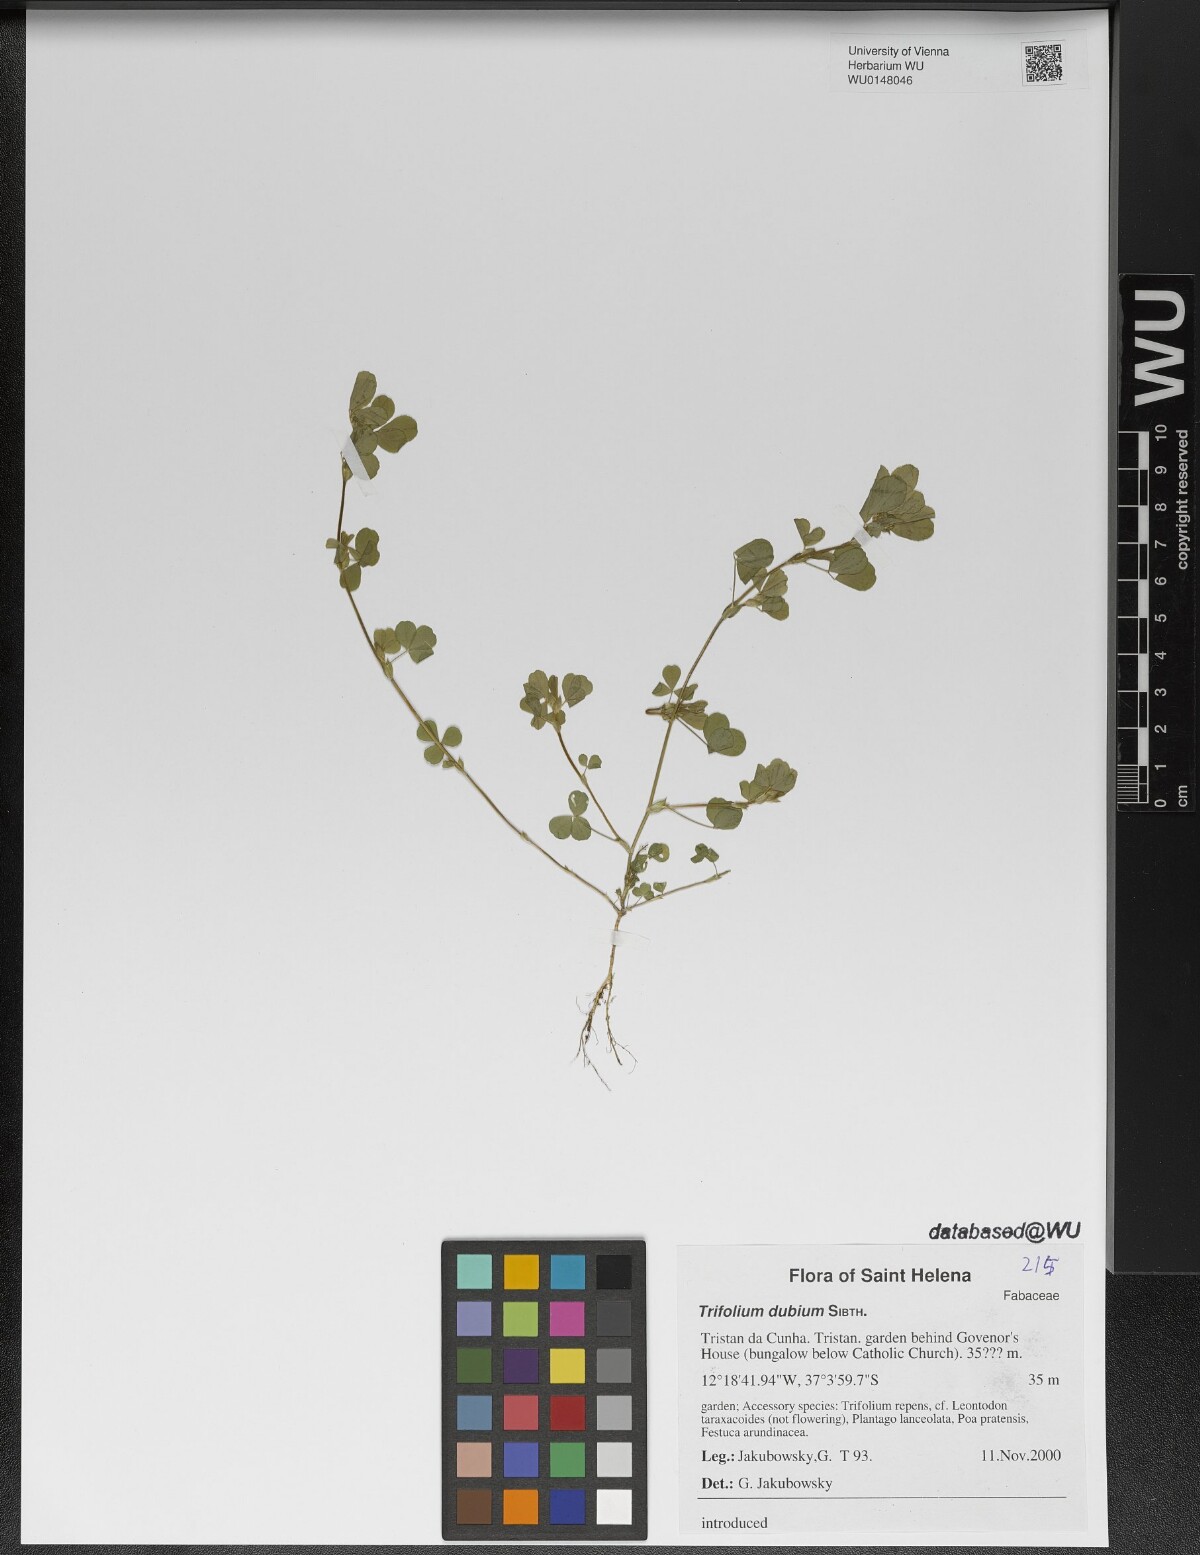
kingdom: Plantae
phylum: Tracheophyta
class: Magnoliopsida
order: Fabales
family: Fabaceae
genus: Trifolium
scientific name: Trifolium dubium
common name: Suckling clover
